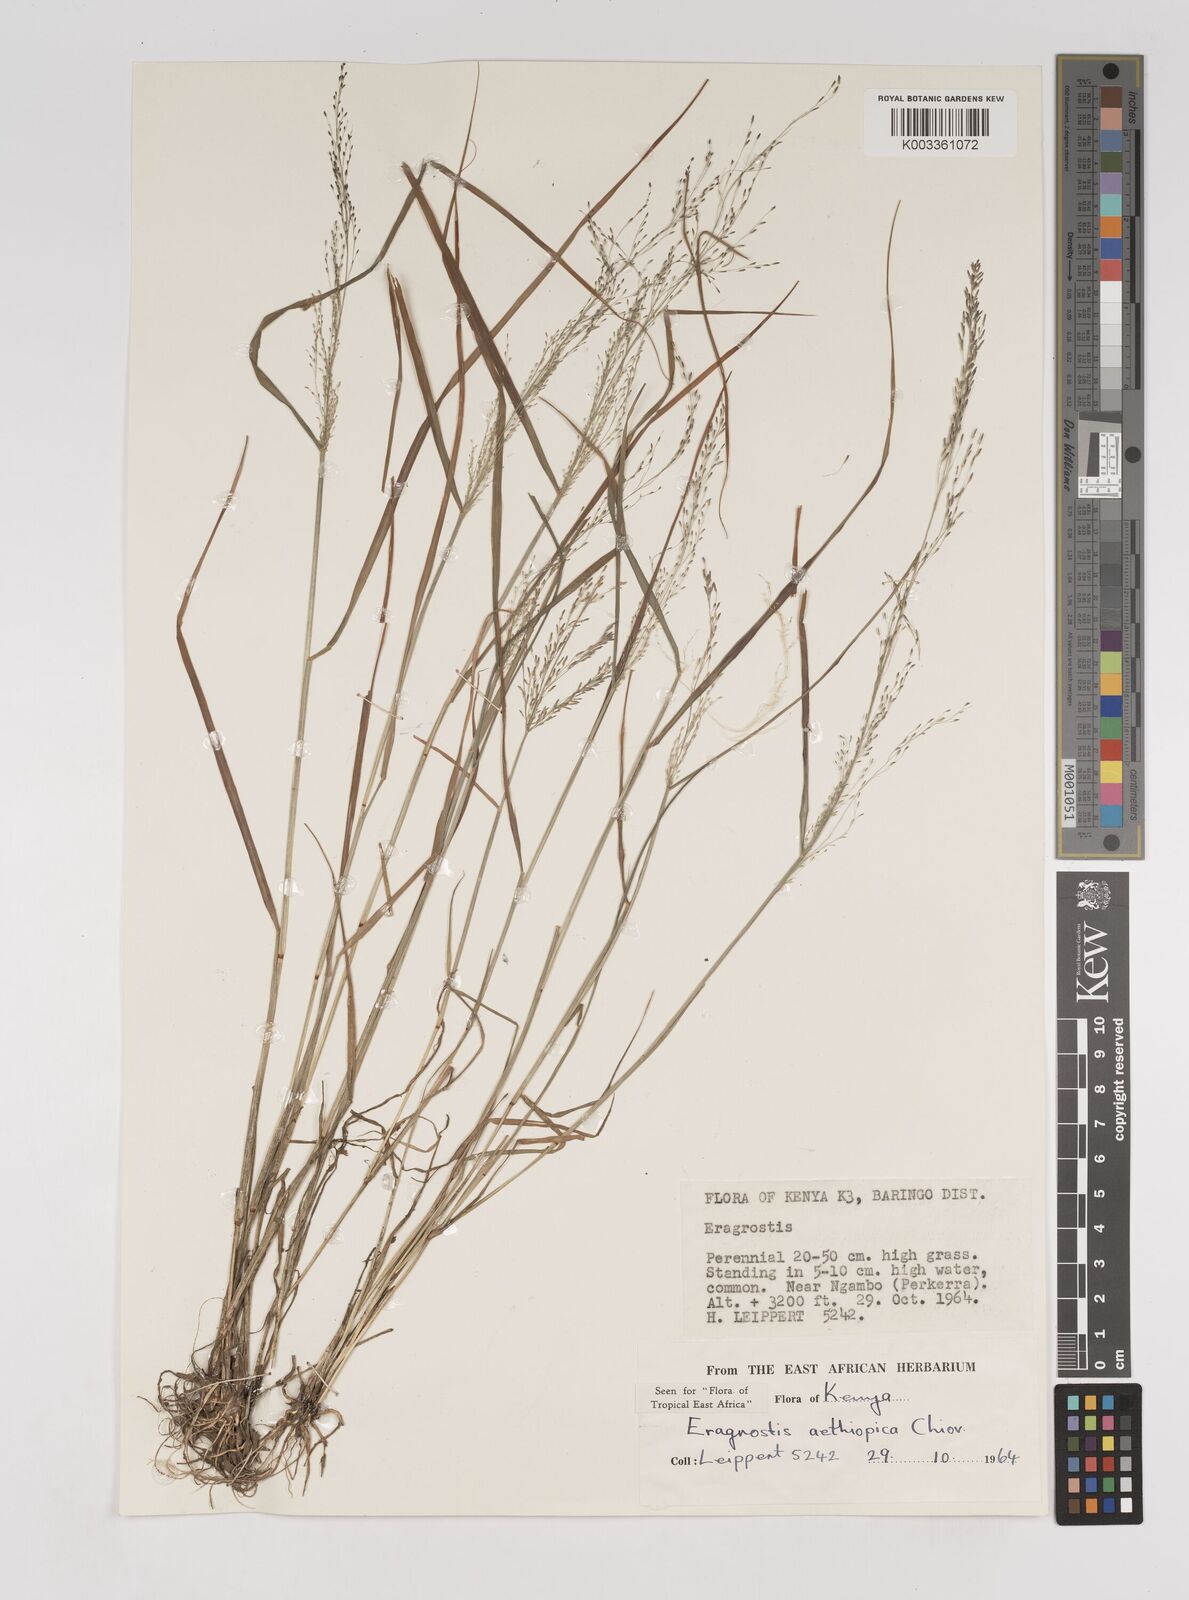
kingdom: Plantae
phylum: Tracheophyta
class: Liliopsida
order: Poales
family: Poaceae
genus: Eragrostis
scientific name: Eragrostis aethiopica
